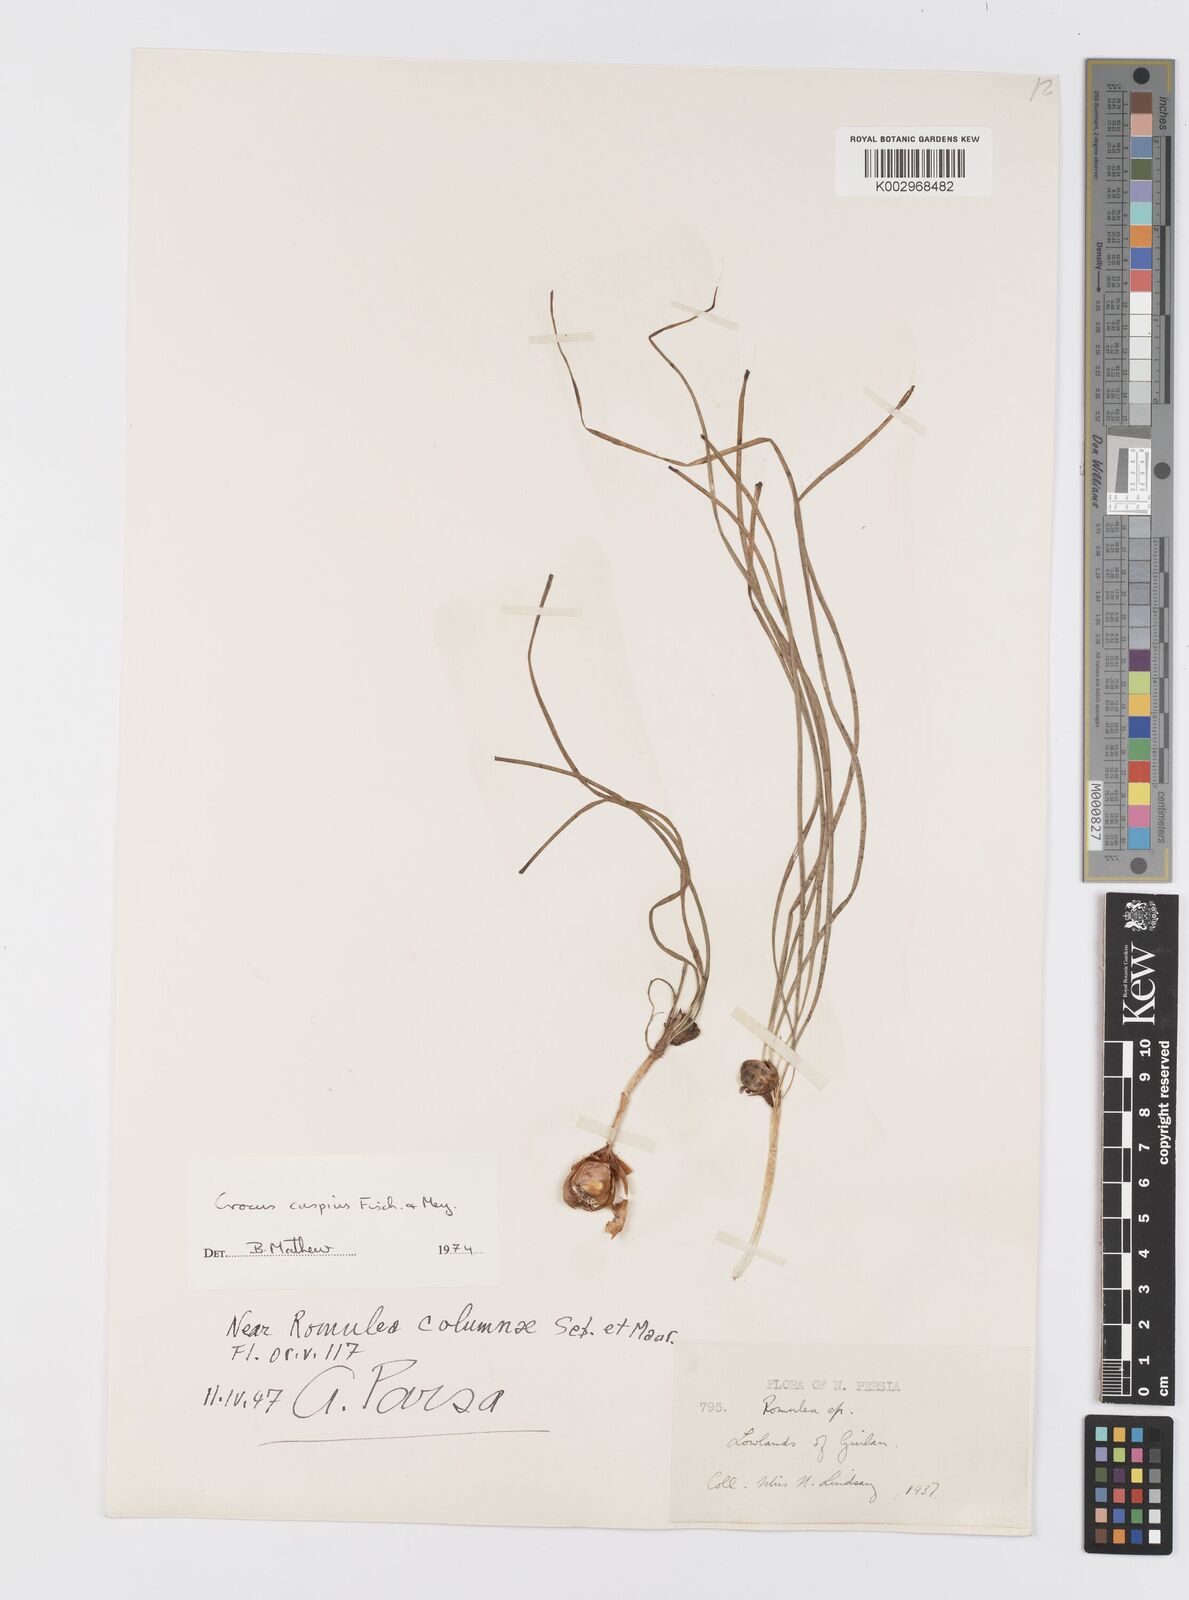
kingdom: Plantae
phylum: Tracheophyta
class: Liliopsida
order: Asparagales
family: Iridaceae
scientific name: Iridaceae
